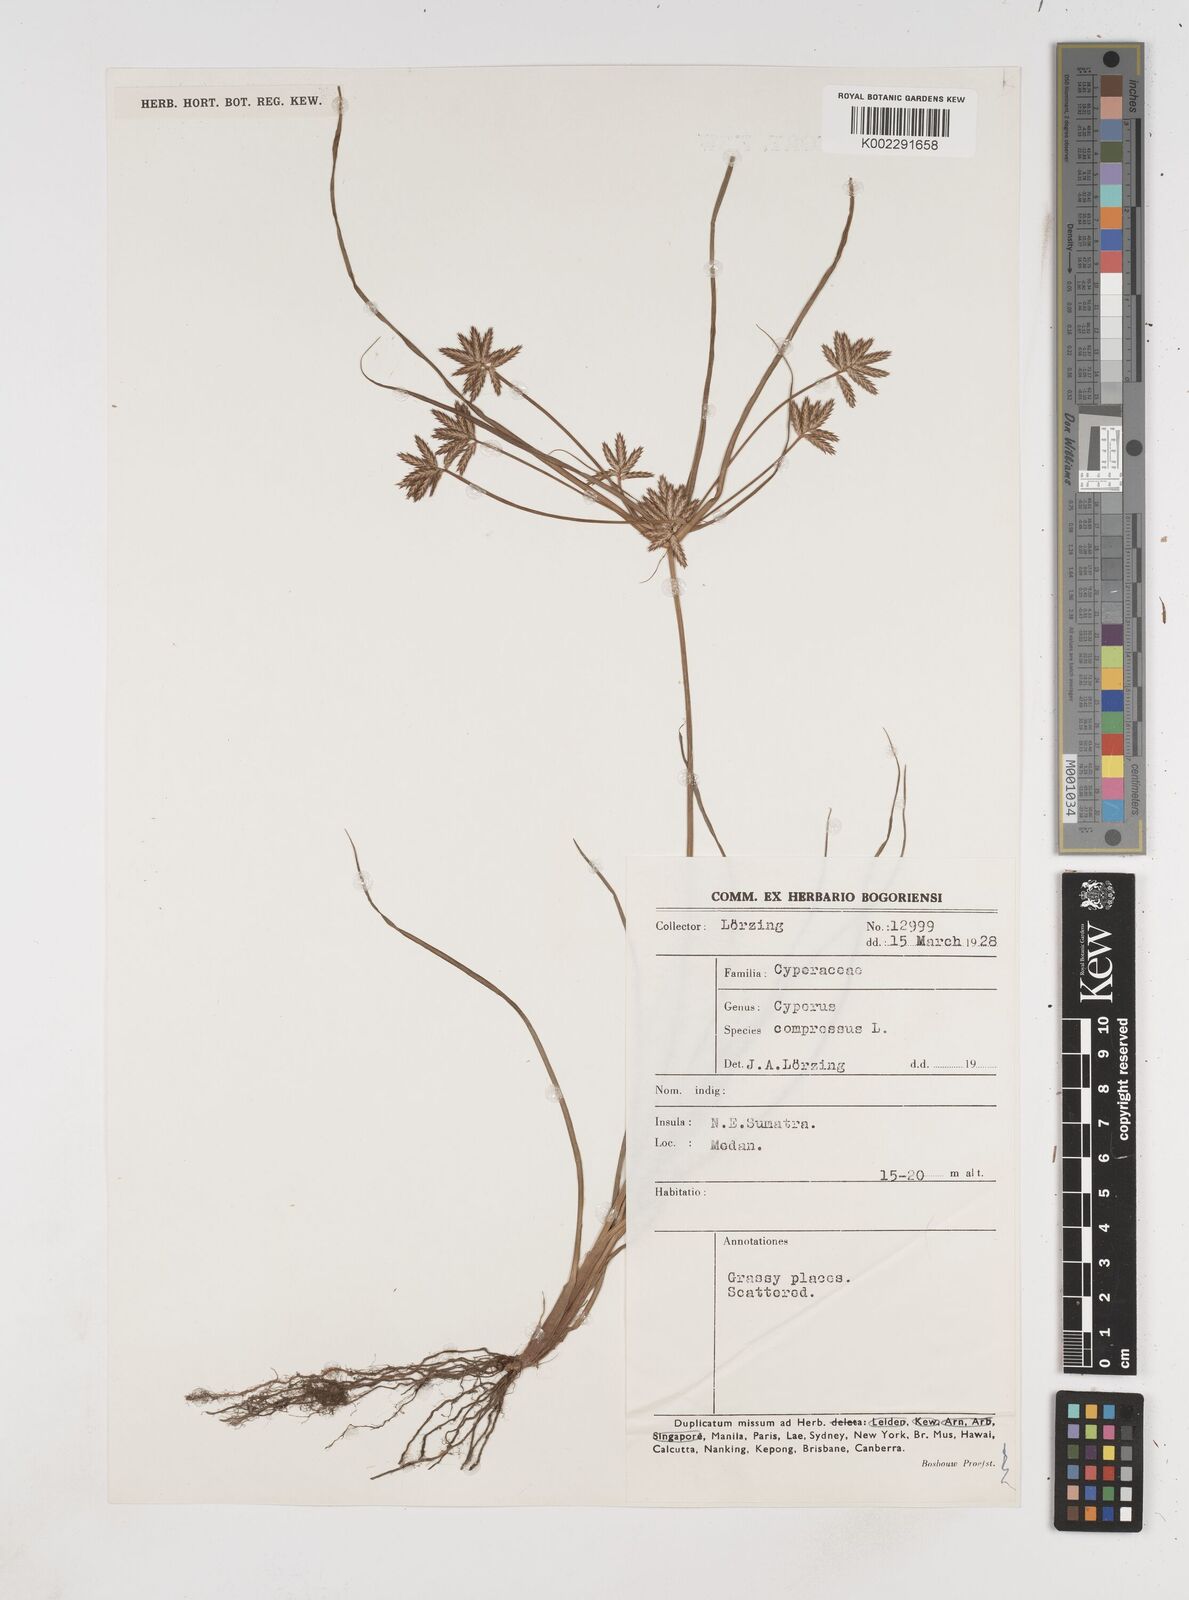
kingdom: Plantae
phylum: Tracheophyta
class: Liliopsida
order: Poales
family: Cyperaceae
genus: Cyperus
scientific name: Cyperus compressus
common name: Poorland flatsedge
